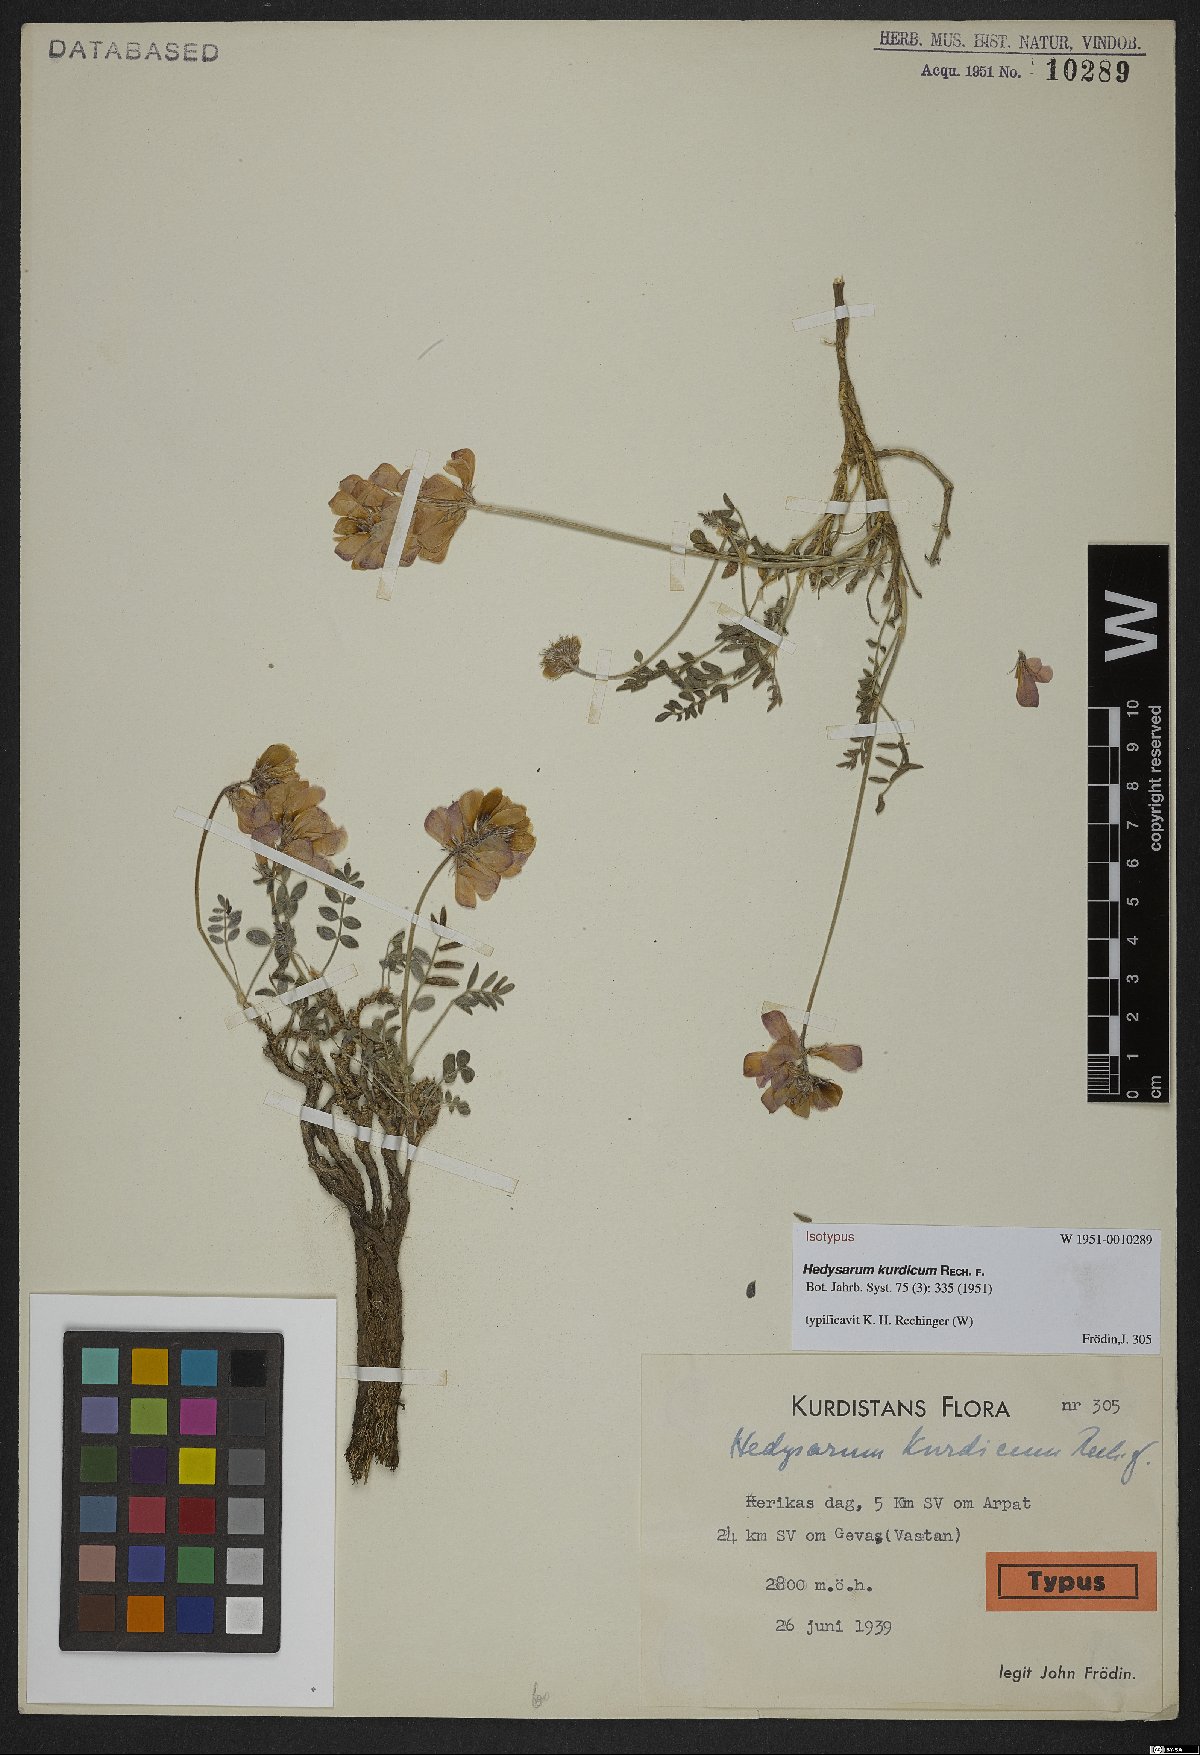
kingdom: Plantae
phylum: Tracheophyta
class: Magnoliopsida
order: Fabales
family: Fabaceae
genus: Hedysarum
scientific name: Hedysarum erythroleucum
